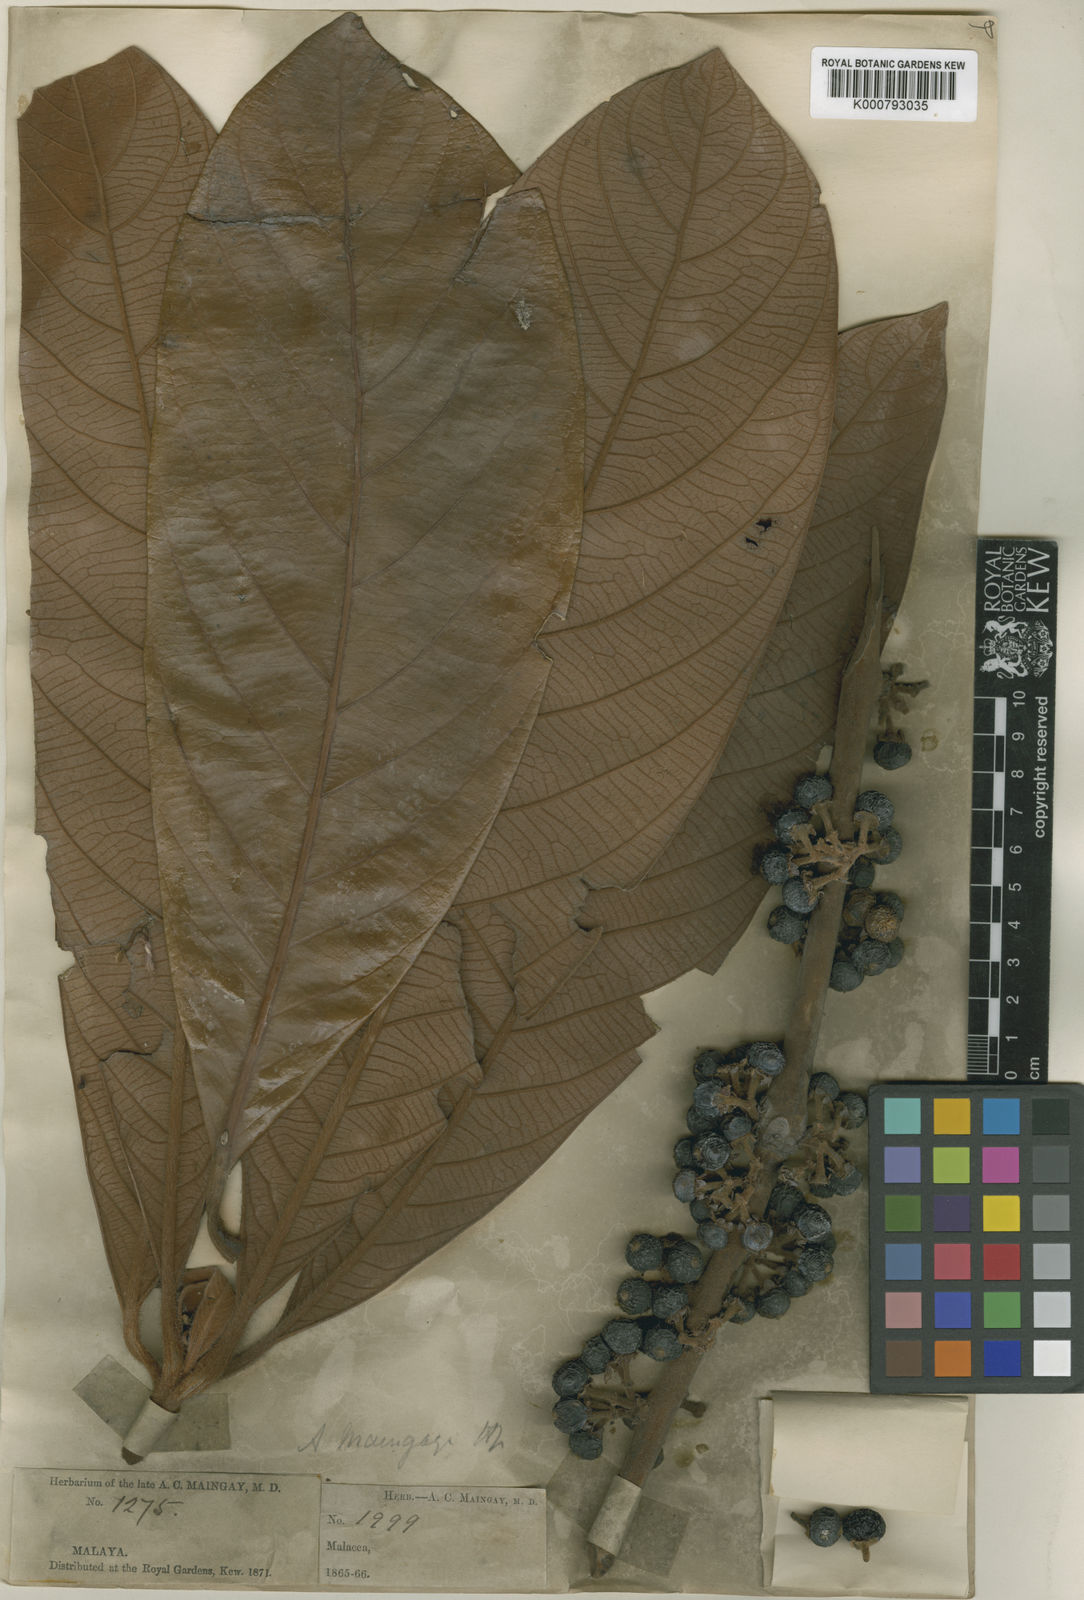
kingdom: Plantae
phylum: Tracheophyta
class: Magnoliopsida
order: Laurales
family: Lauraceae
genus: Actinodaphne
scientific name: Actinodaphne macrophylla
